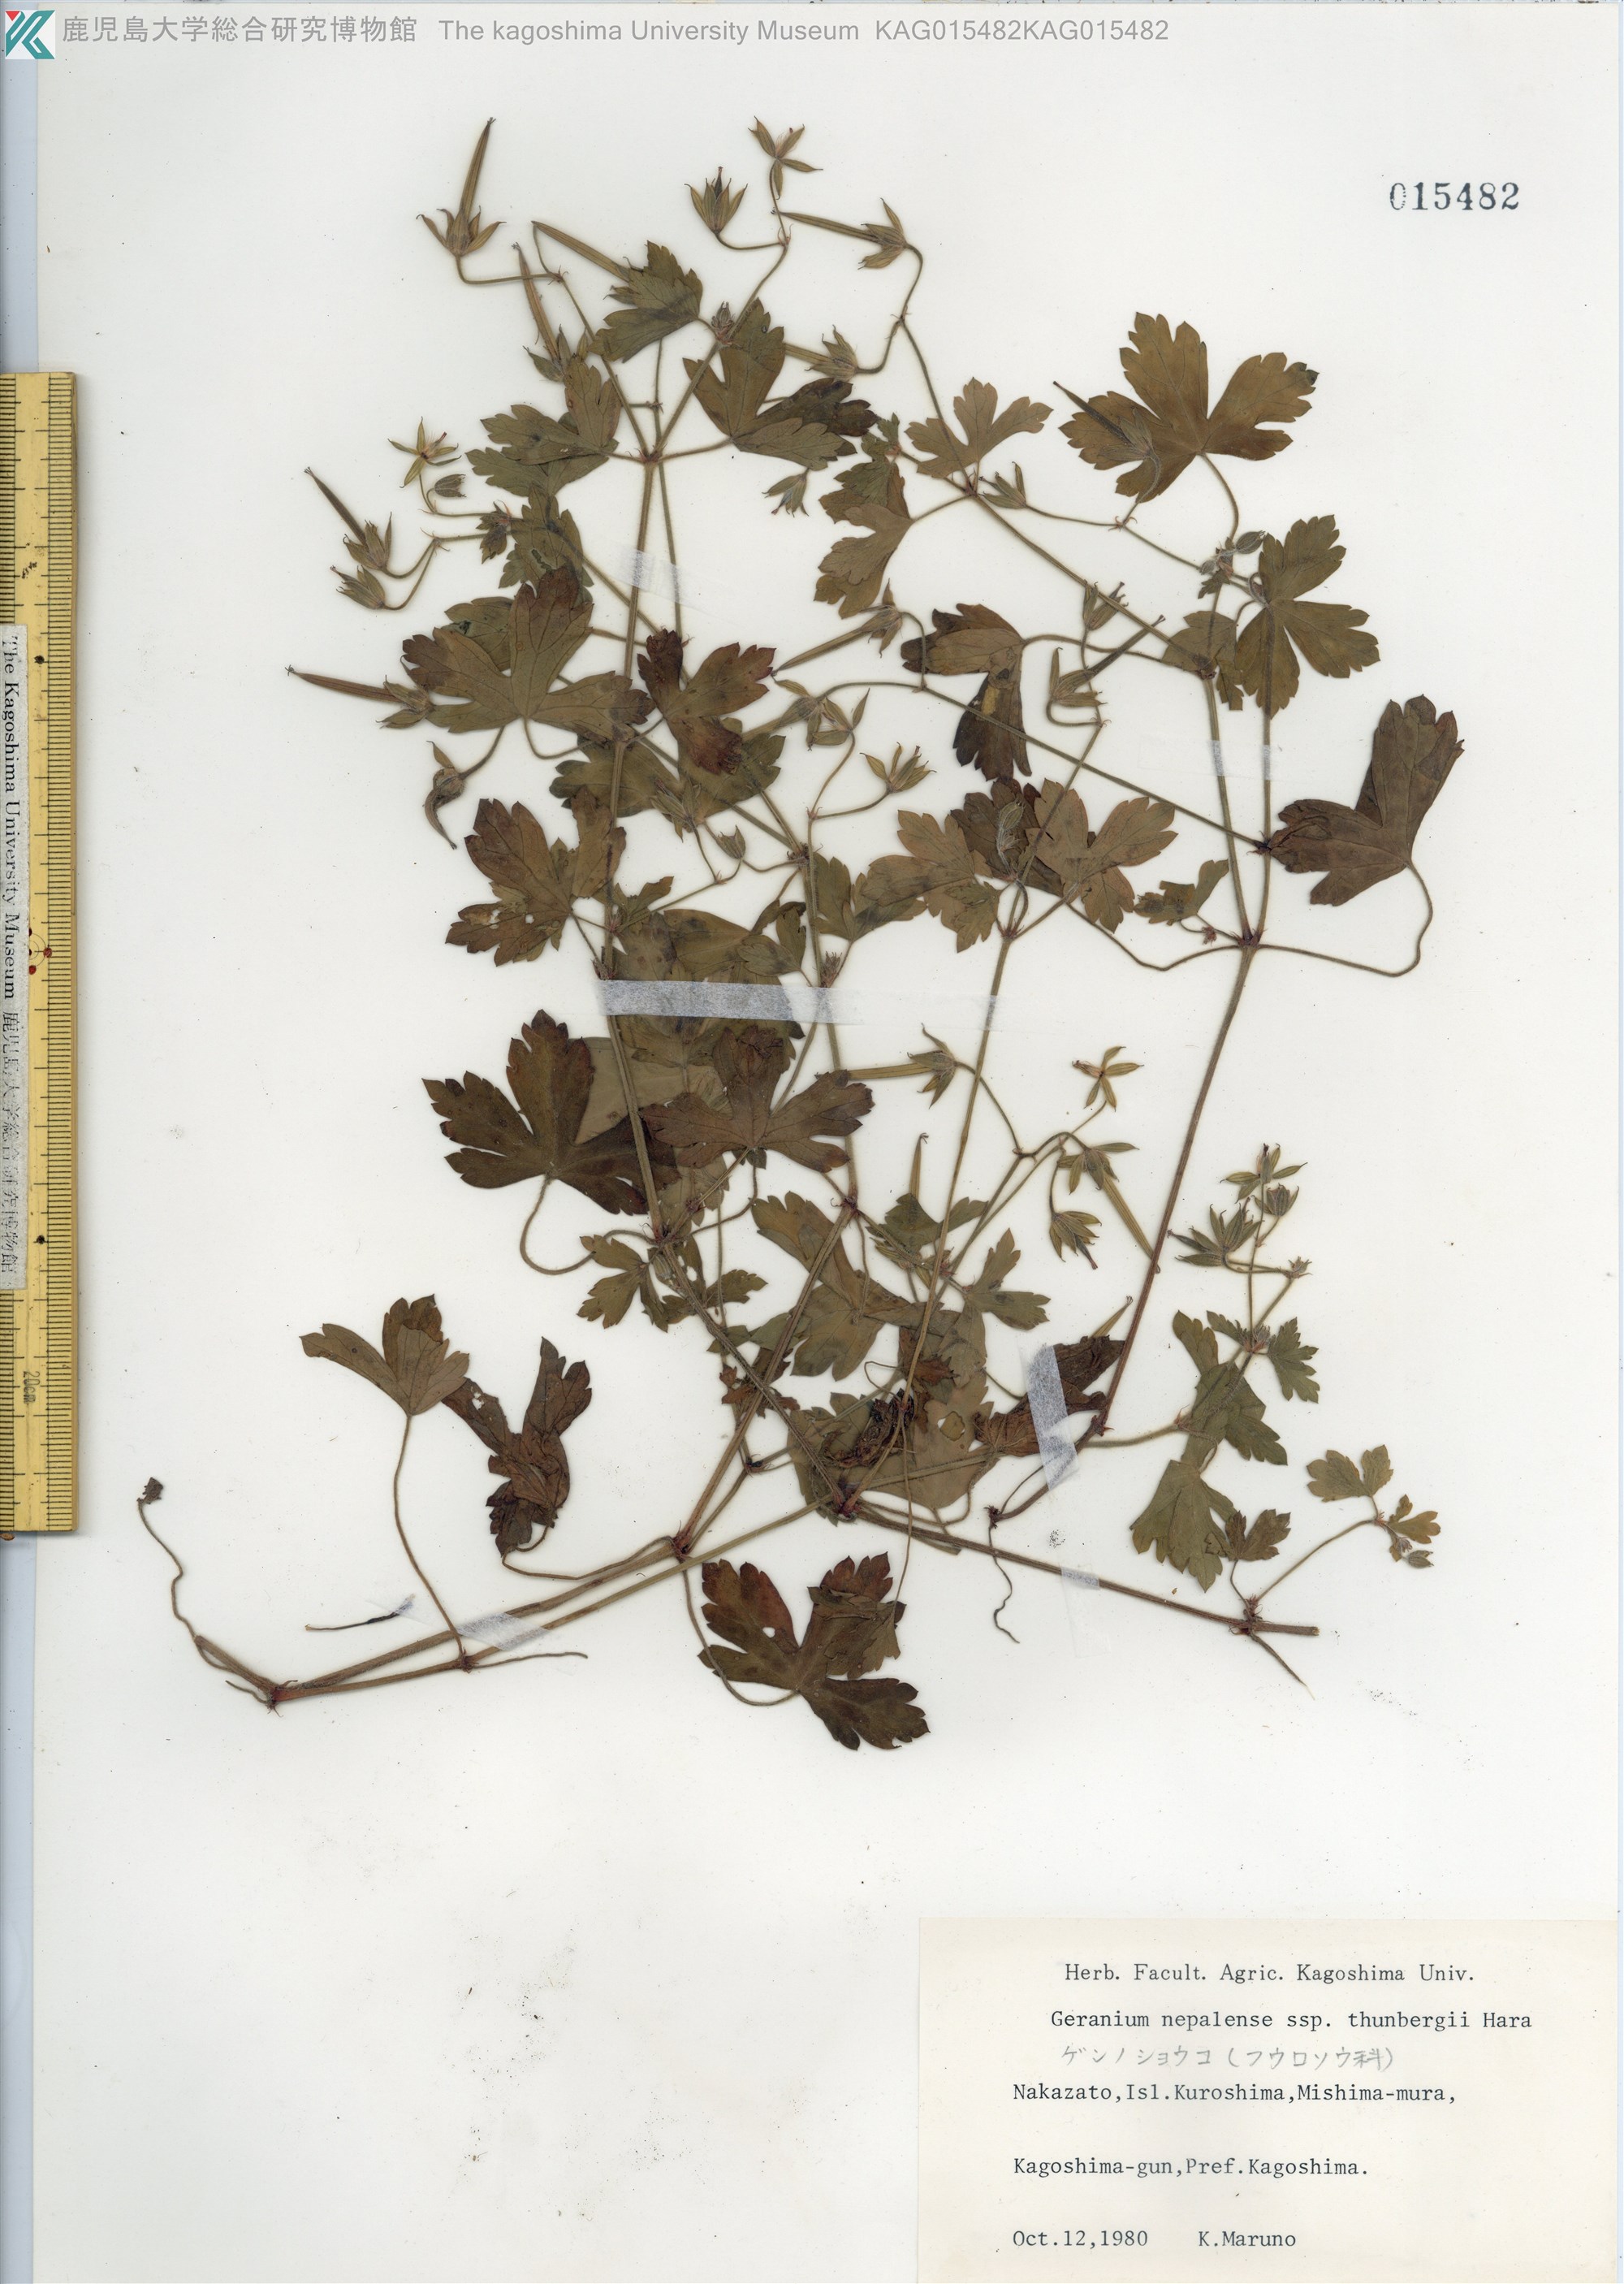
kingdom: Plantae
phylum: Tracheophyta
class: Magnoliopsida
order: Geraniales
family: Geraniaceae
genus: Geranium
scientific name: Geranium thunbergii
